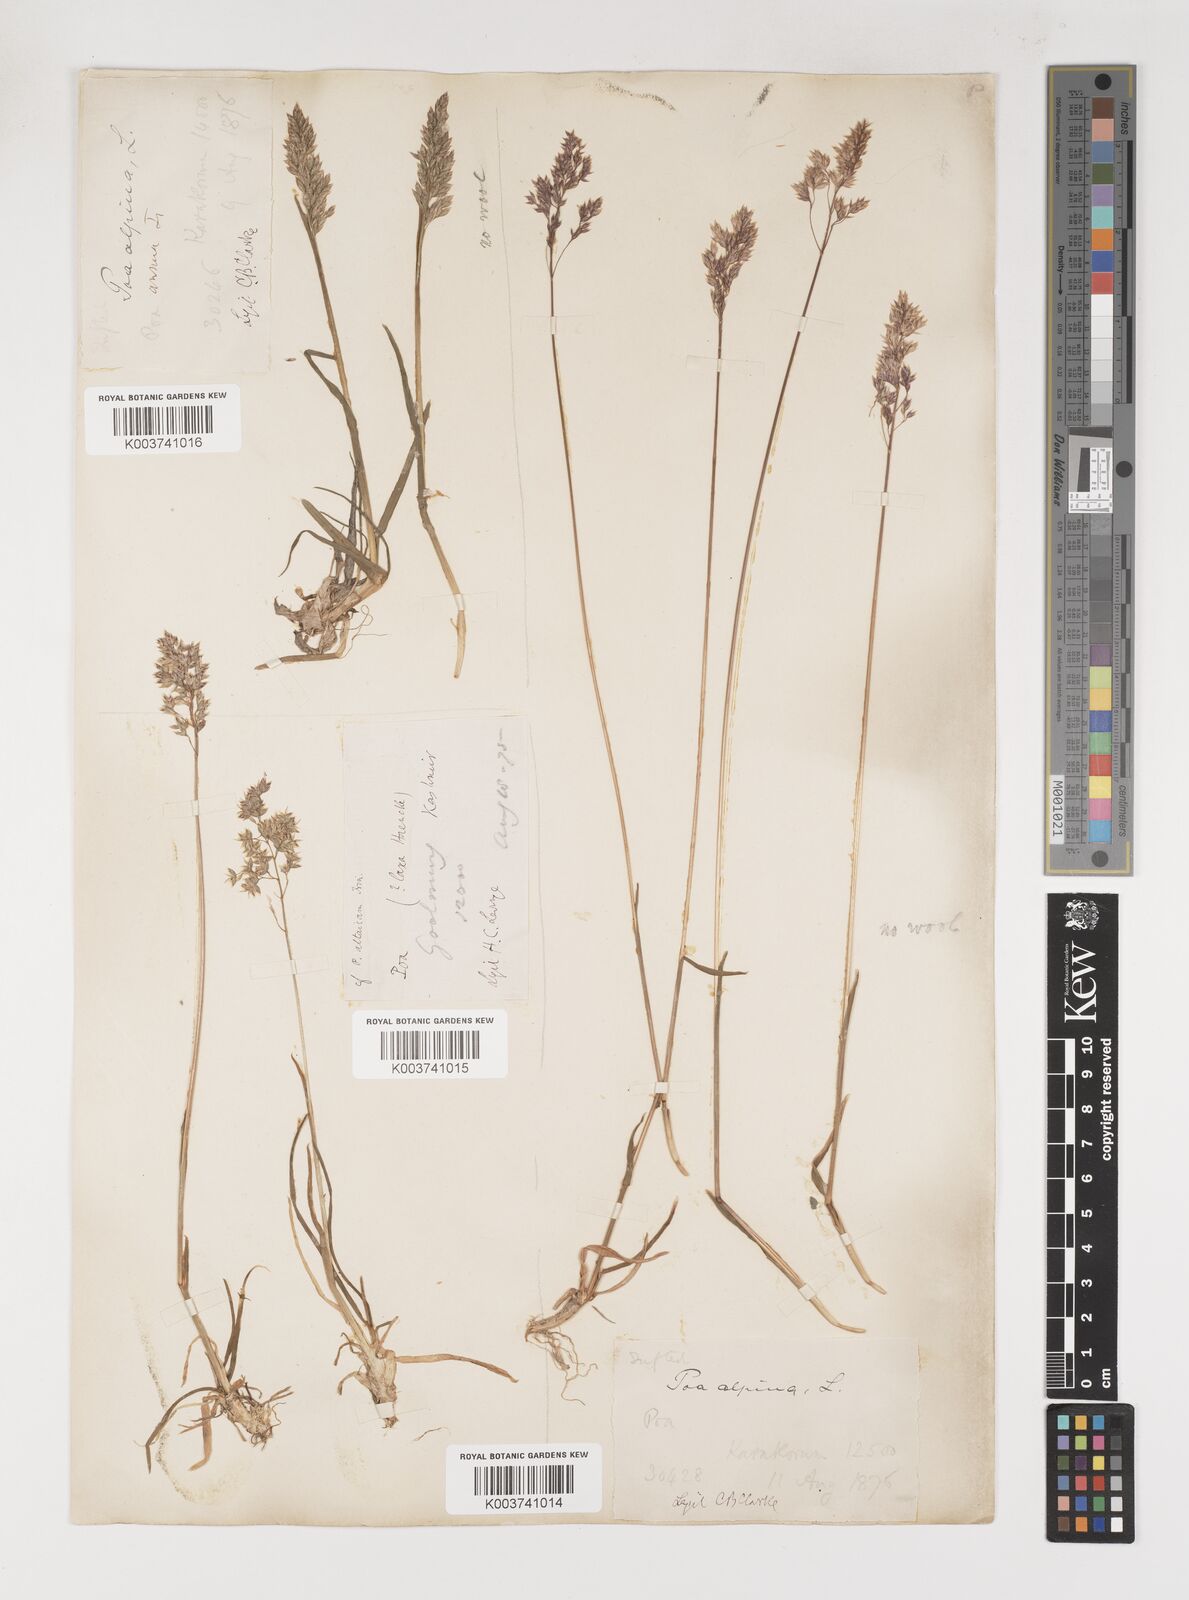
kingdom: Plantae
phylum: Tracheophyta
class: Liliopsida
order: Poales
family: Poaceae
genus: Poa
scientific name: Poa alpina
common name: Alpine bluegrass
